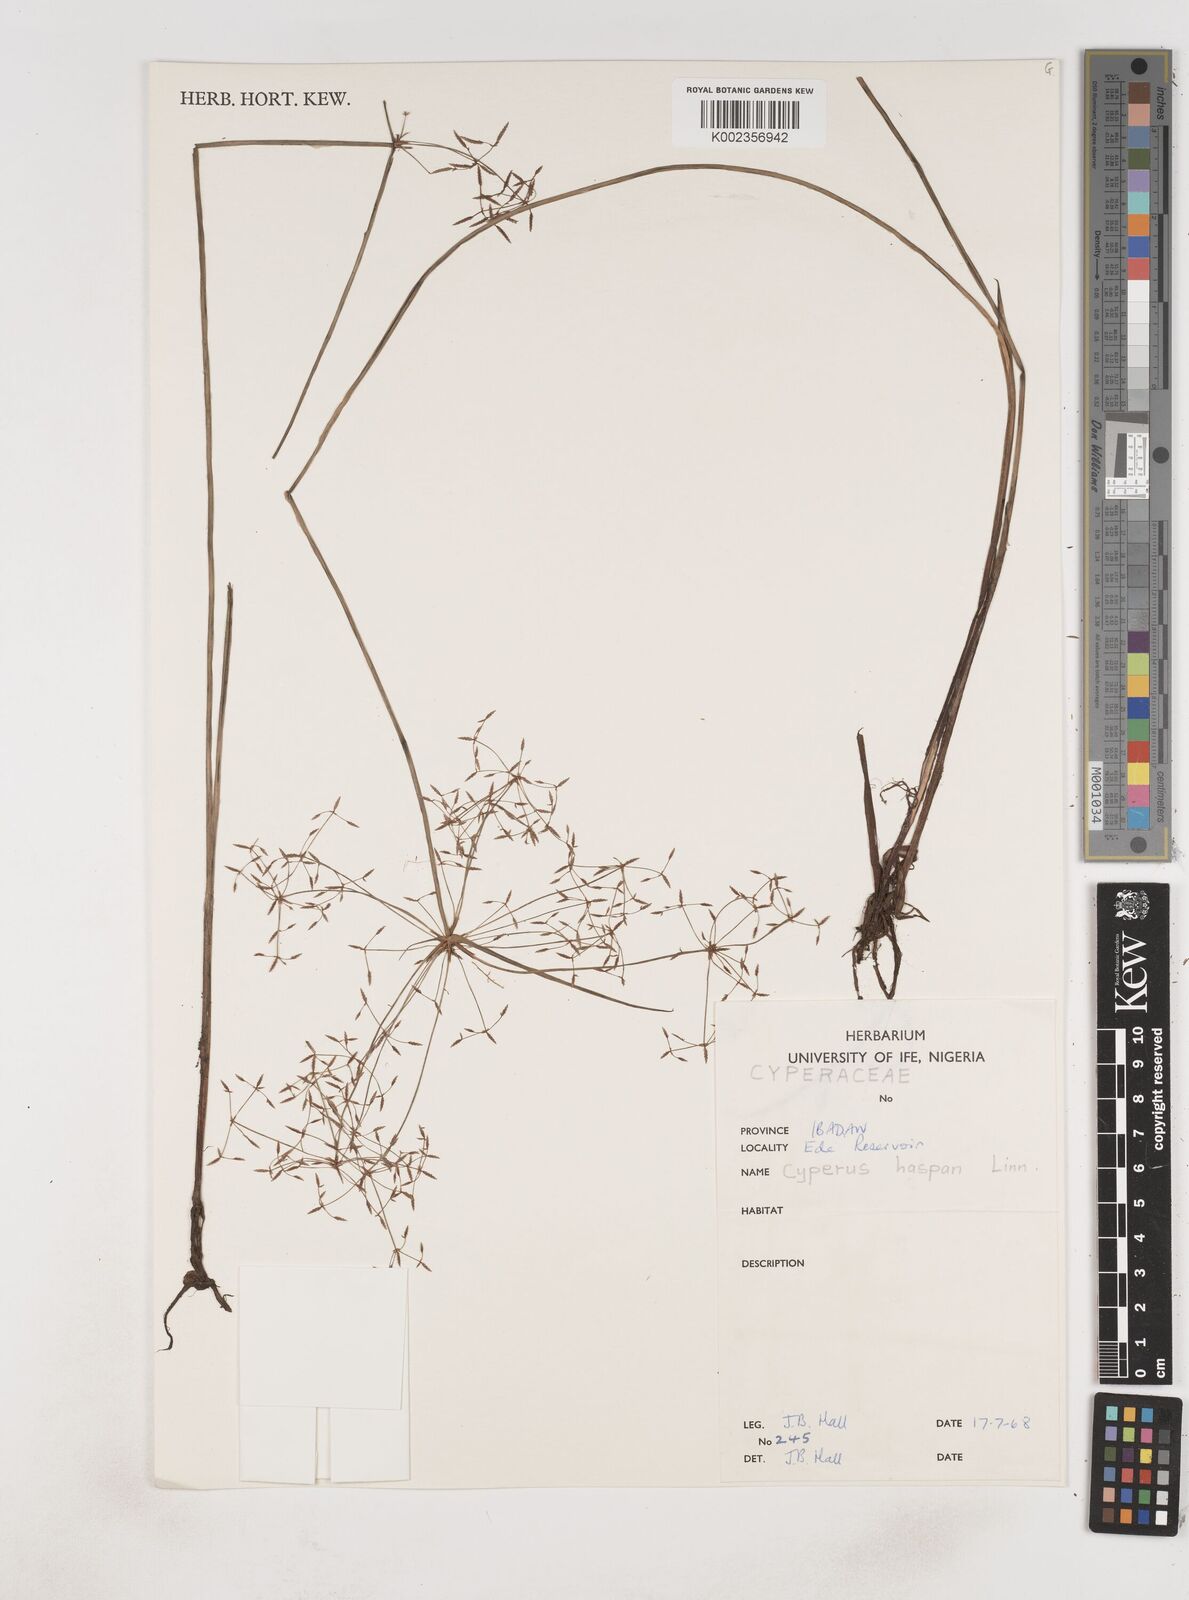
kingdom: Plantae
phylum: Tracheophyta
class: Liliopsida
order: Poales
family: Cyperaceae
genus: Cyperus
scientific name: Cyperus haspan
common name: Haspan flatsedge
